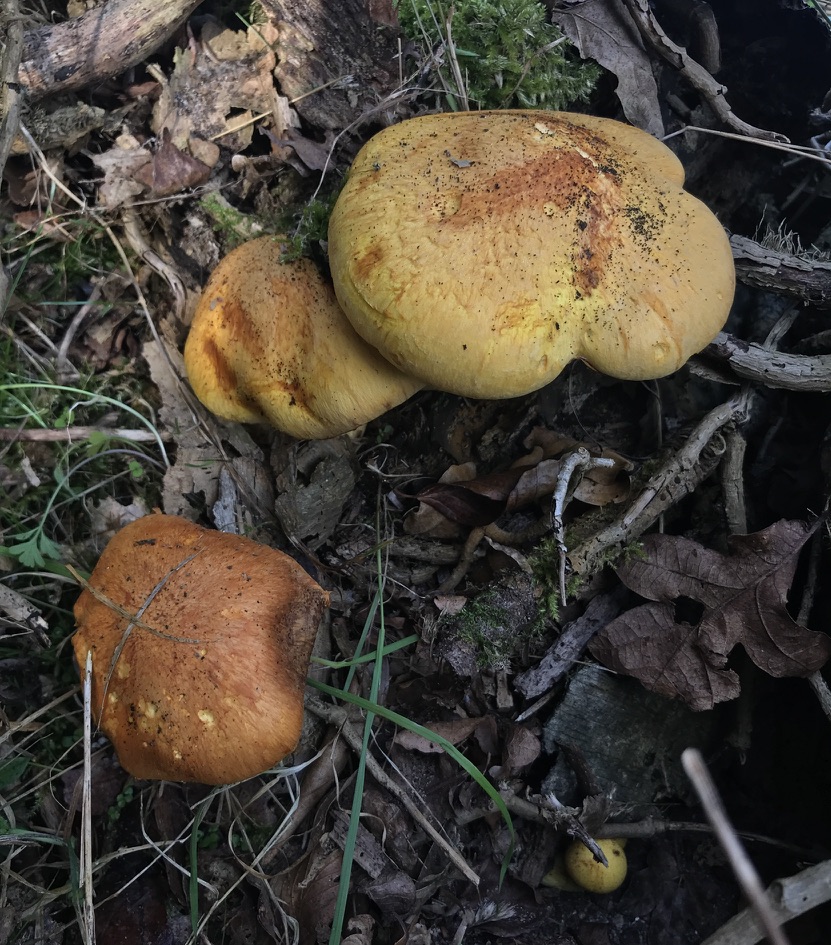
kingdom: Fungi
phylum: Basidiomycota
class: Agaricomycetes
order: Agaricales
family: Hymenogastraceae
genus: Gymnopilus
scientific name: Gymnopilus spectabilis
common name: fibret flammehat
